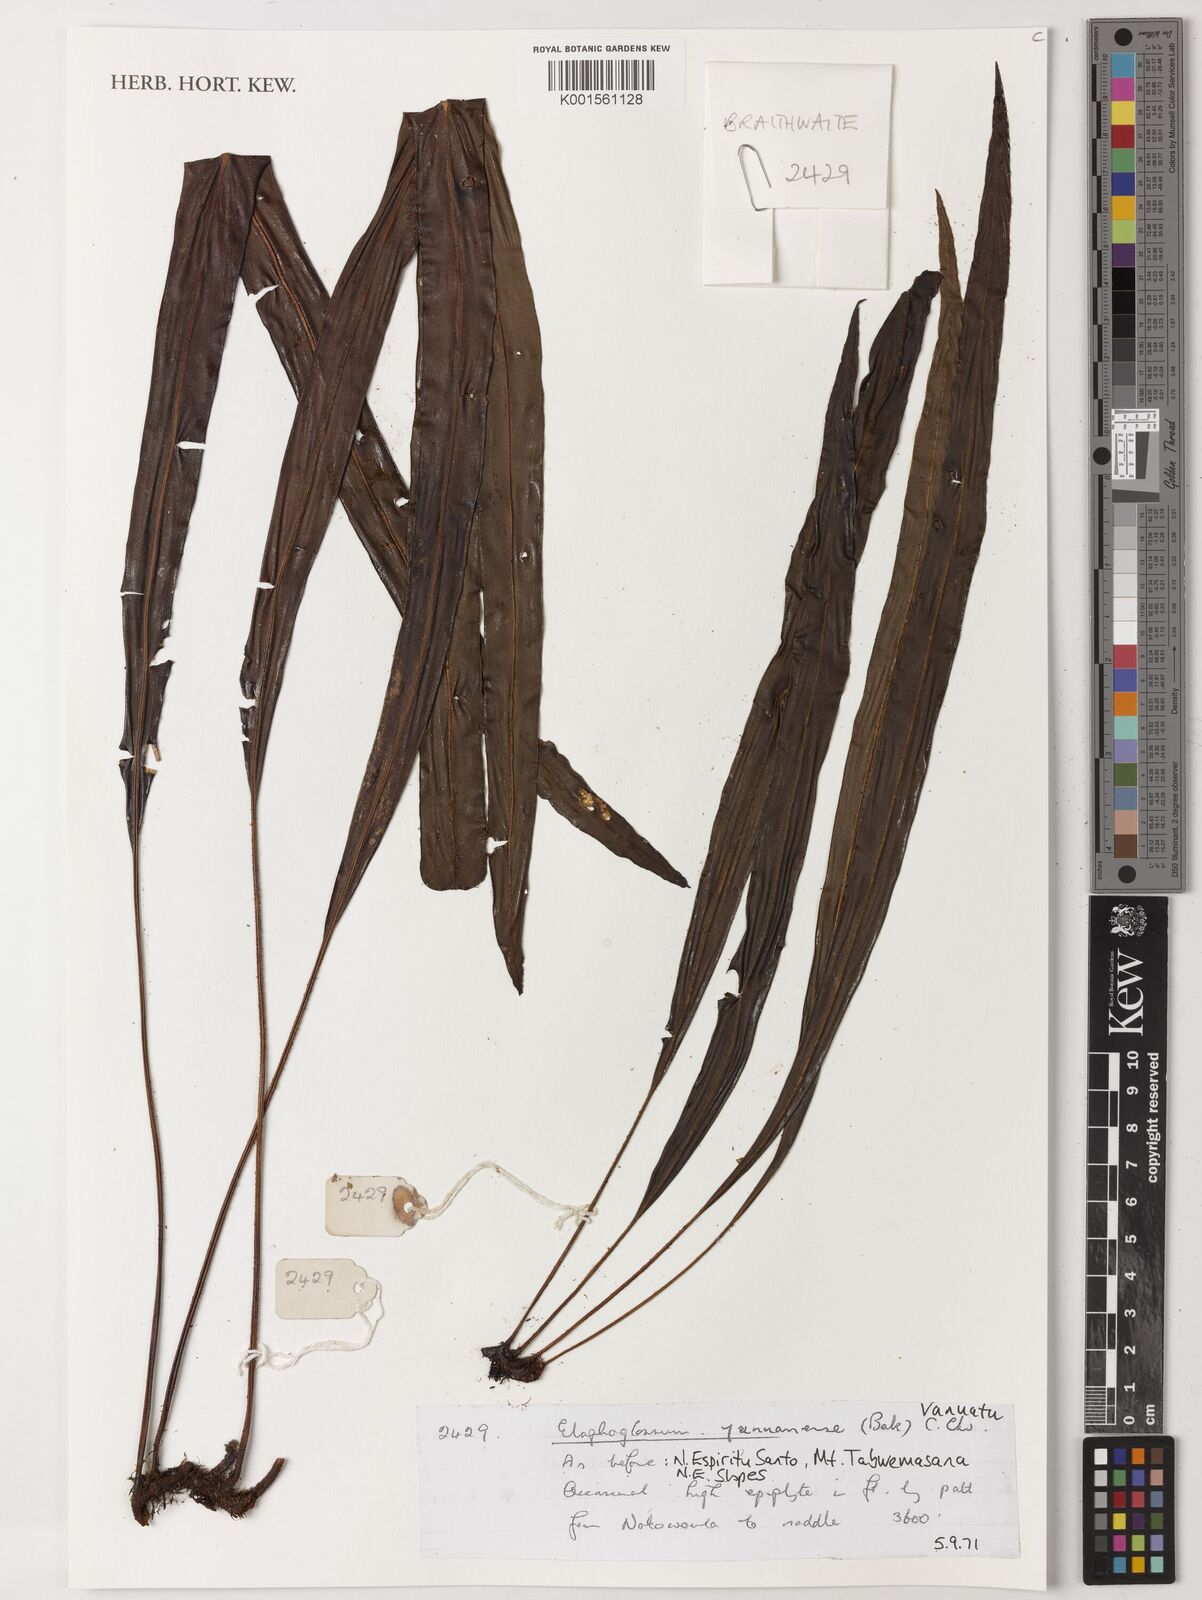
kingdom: Plantae
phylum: Tracheophyta
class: Polypodiopsida
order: Polypodiales
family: Dryopteridaceae
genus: Elaphoglossum
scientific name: Elaphoglossum stelligerum
